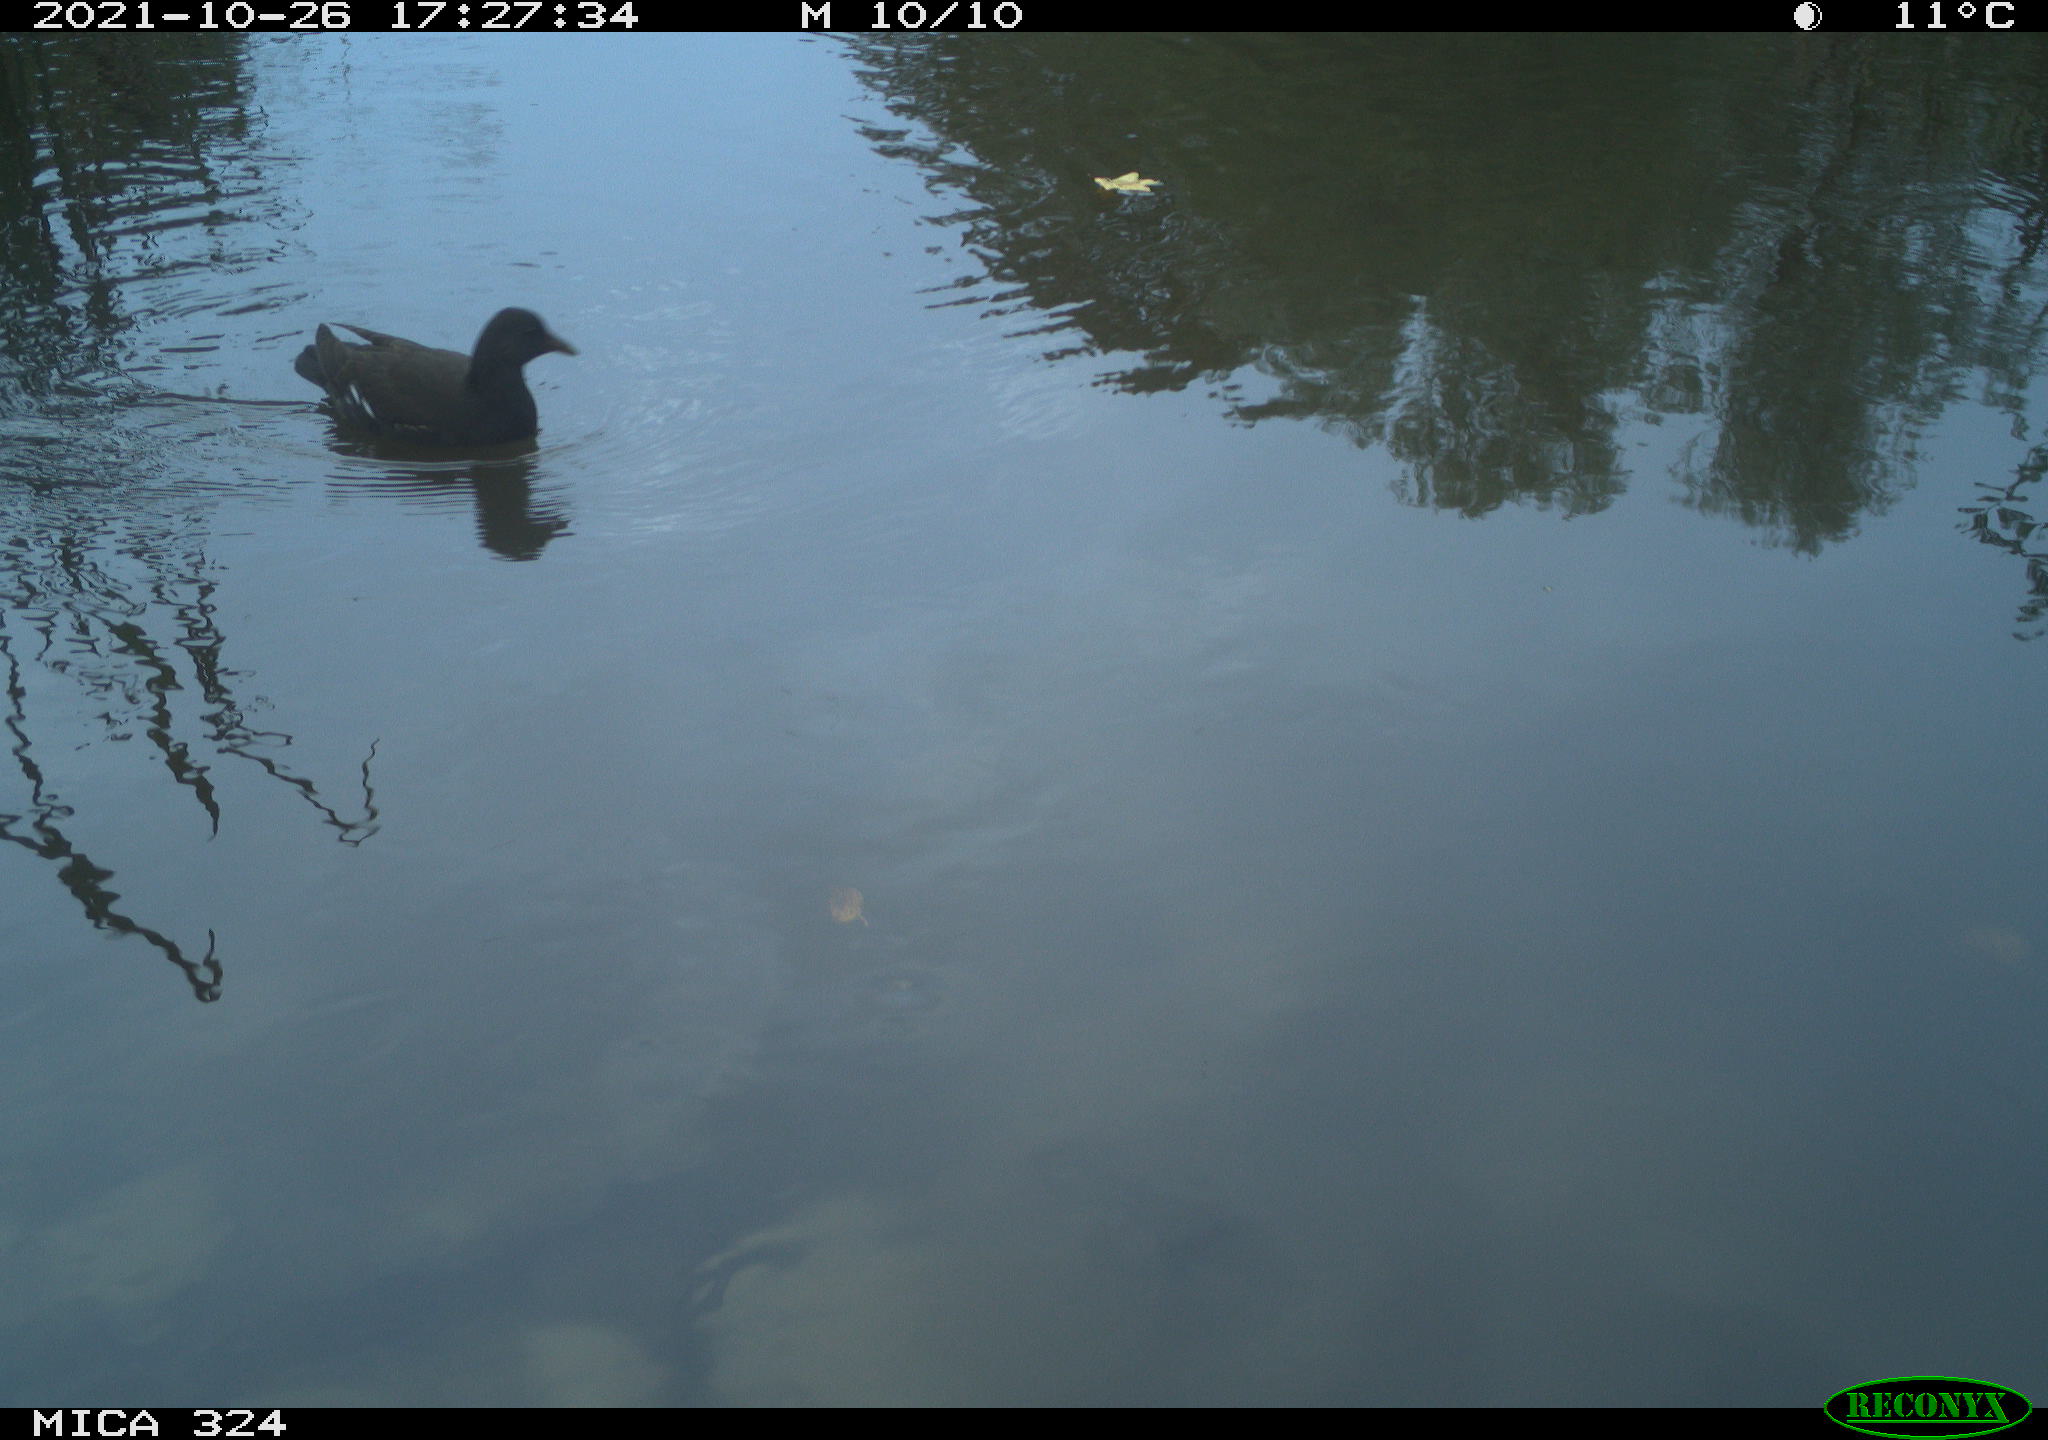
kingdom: Animalia
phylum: Chordata
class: Aves
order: Gruiformes
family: Rallidae
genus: Gallinula
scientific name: Gallinula chloropus
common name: Common moorhen
